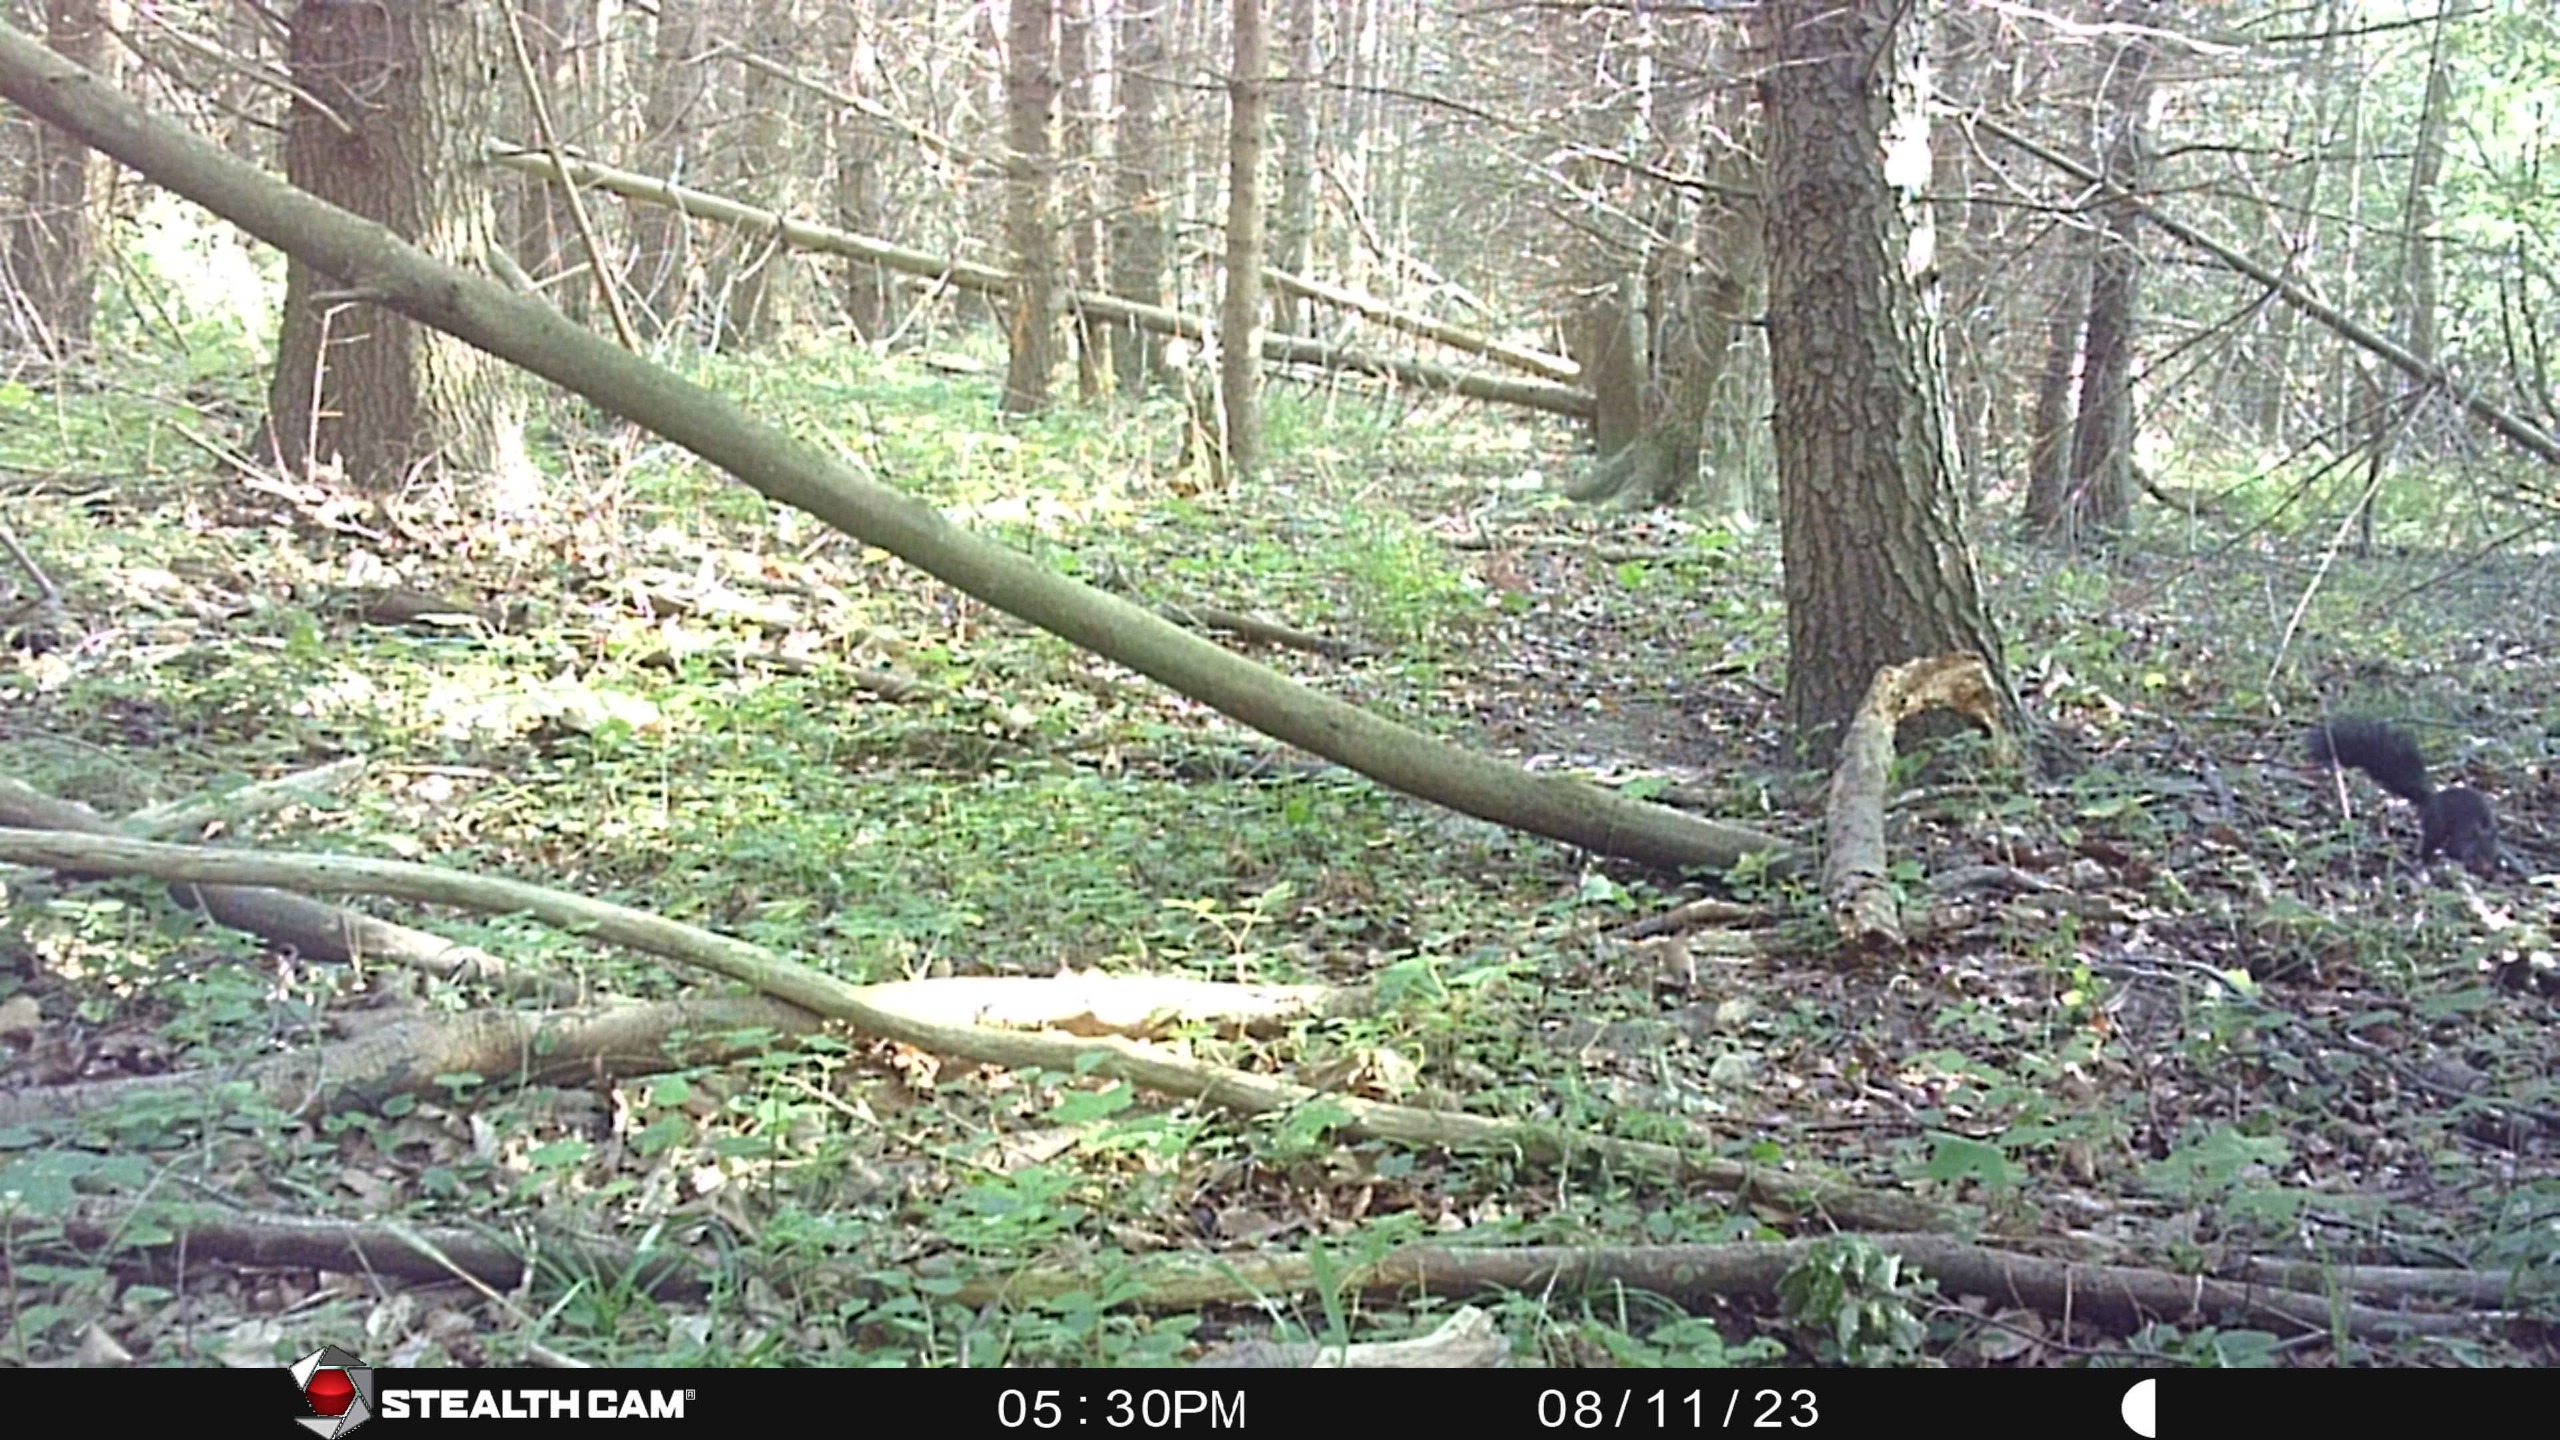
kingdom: Animalia
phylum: Chordata
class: Mammalia
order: Rodentia
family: Sciuridae
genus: Sciurus
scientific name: Sciurus vulgaris
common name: Egern
